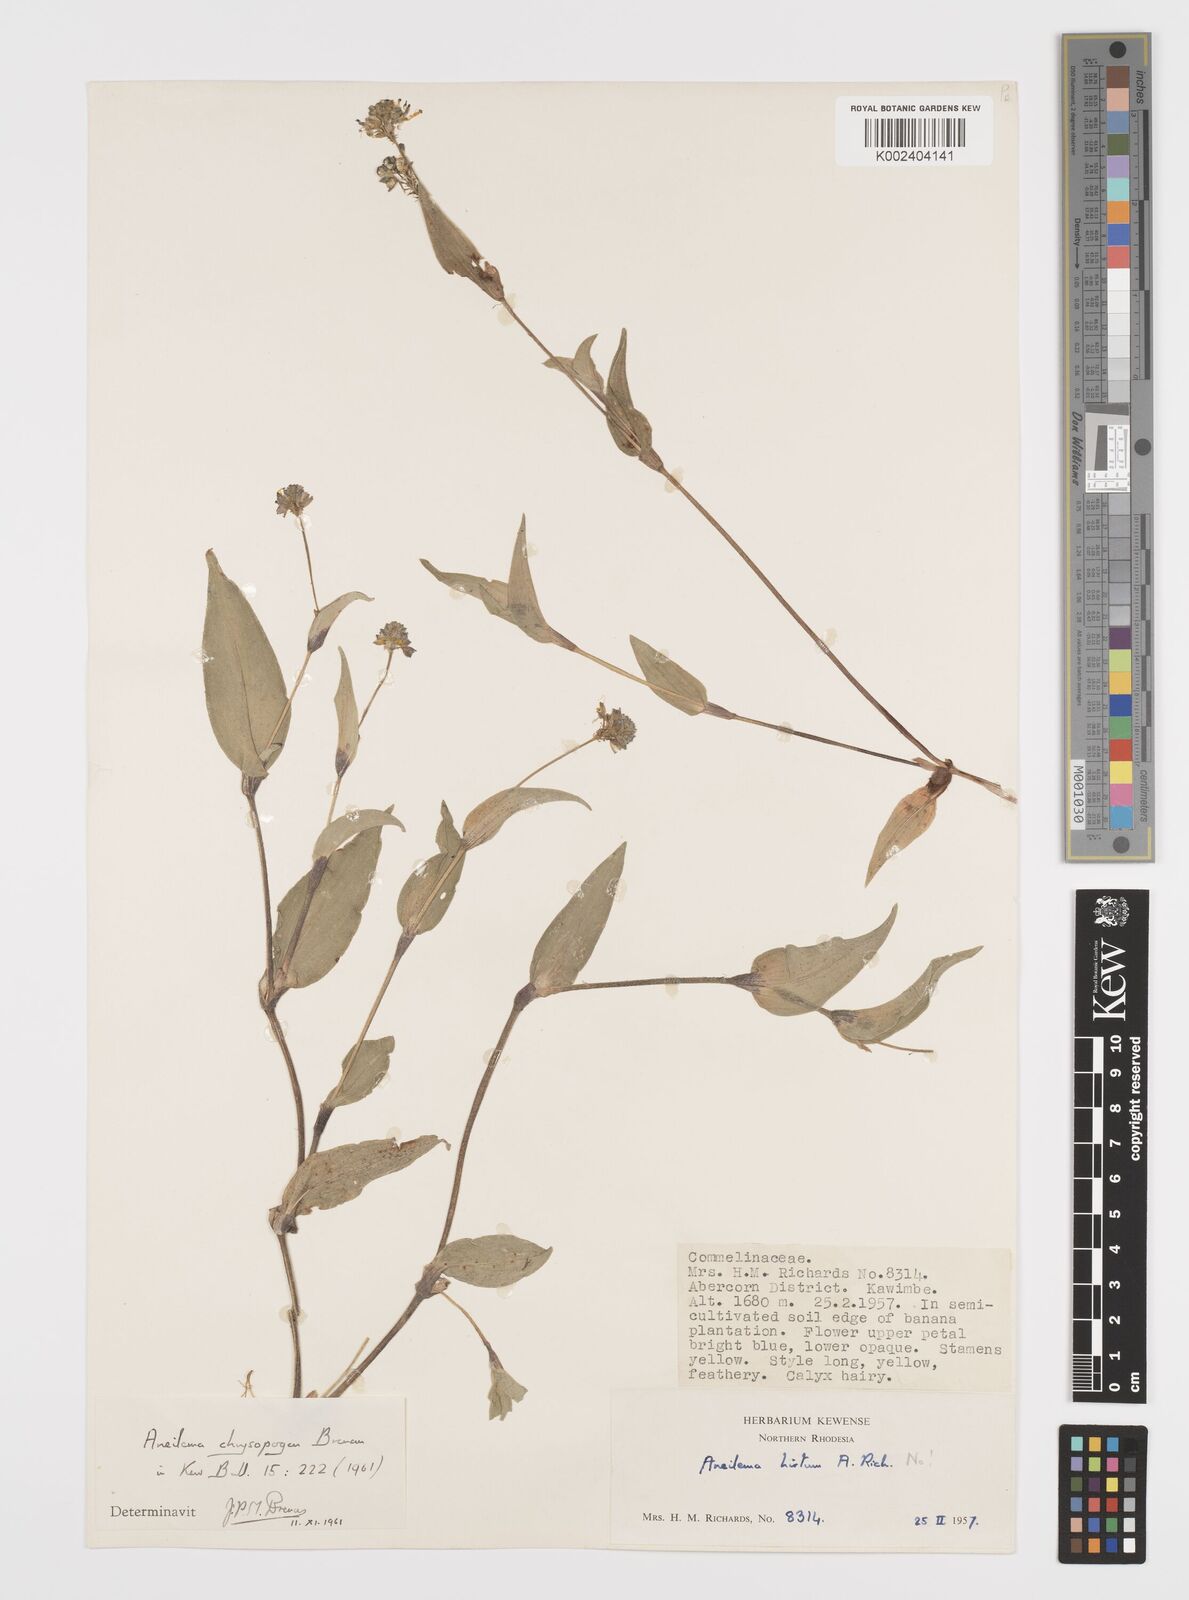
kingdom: Plantae
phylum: Tracheophyta
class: Liliopsida
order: Commelinales
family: Commelinaceae
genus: Aneilema
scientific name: Aneilema chrysopogon
